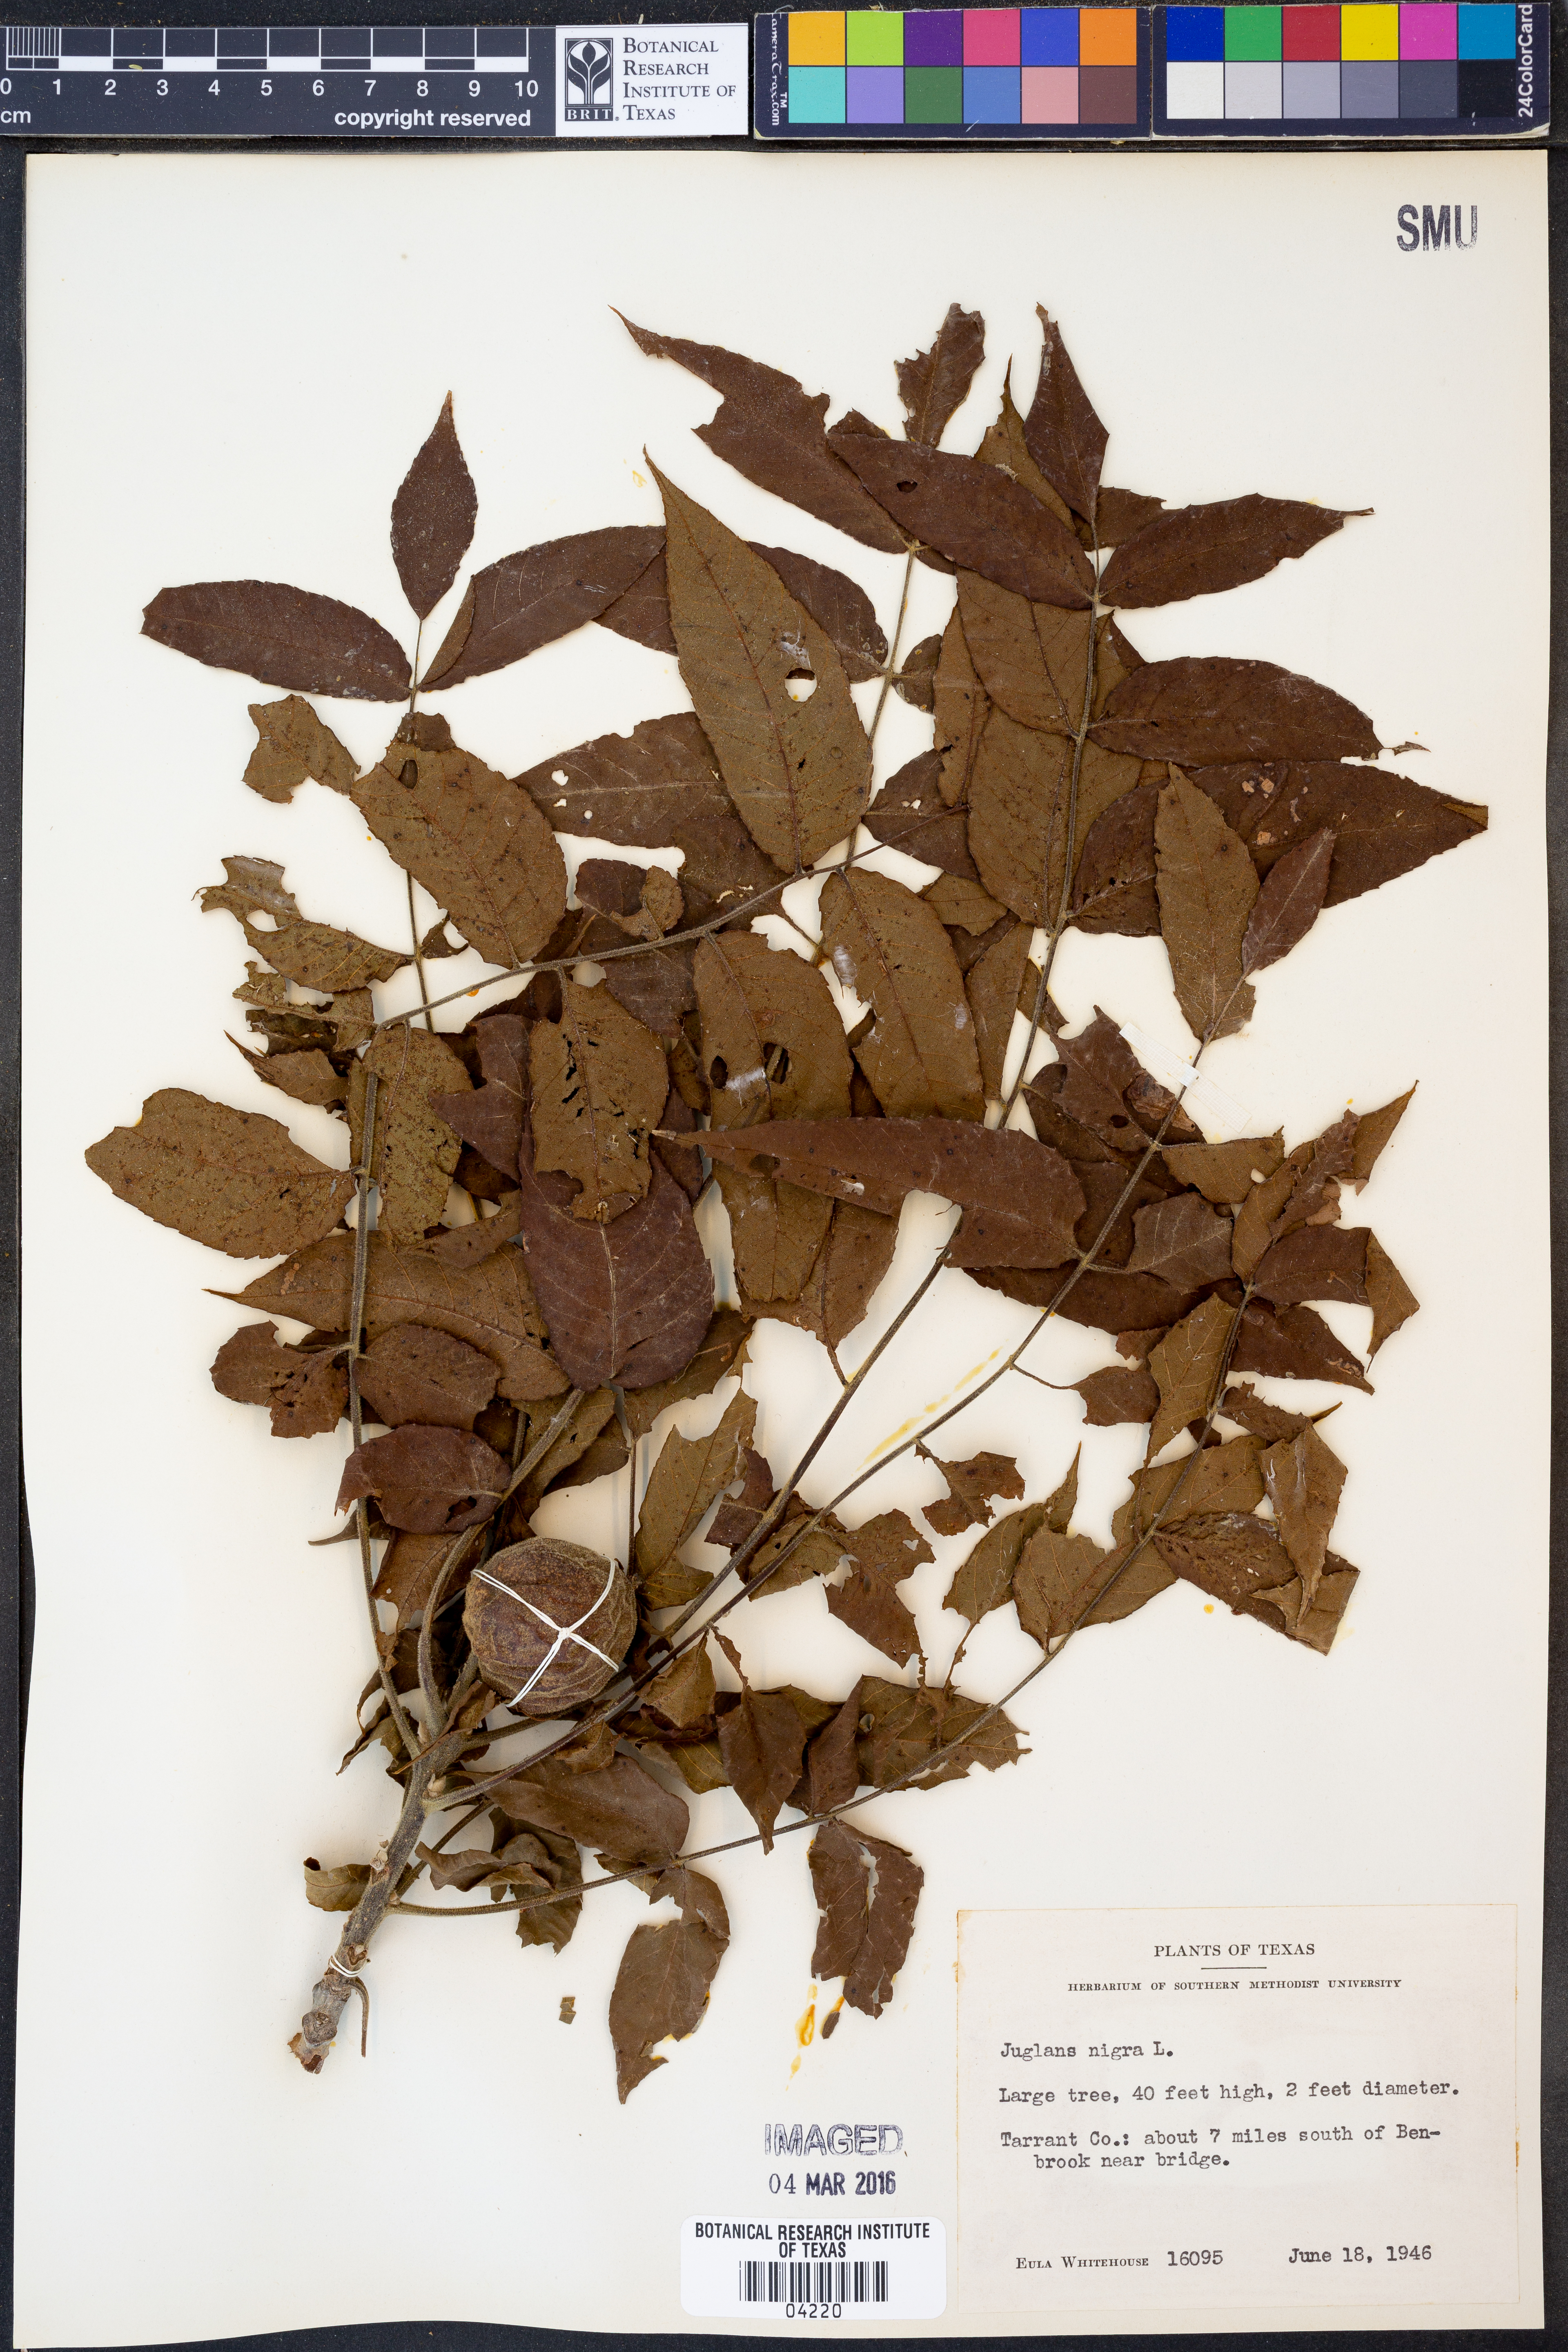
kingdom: Plantae
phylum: Tracheophyta
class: Magnoliopsida
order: Fagales
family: Juglandaceae
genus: Juglans
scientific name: Juglans nigra
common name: Black walnut
